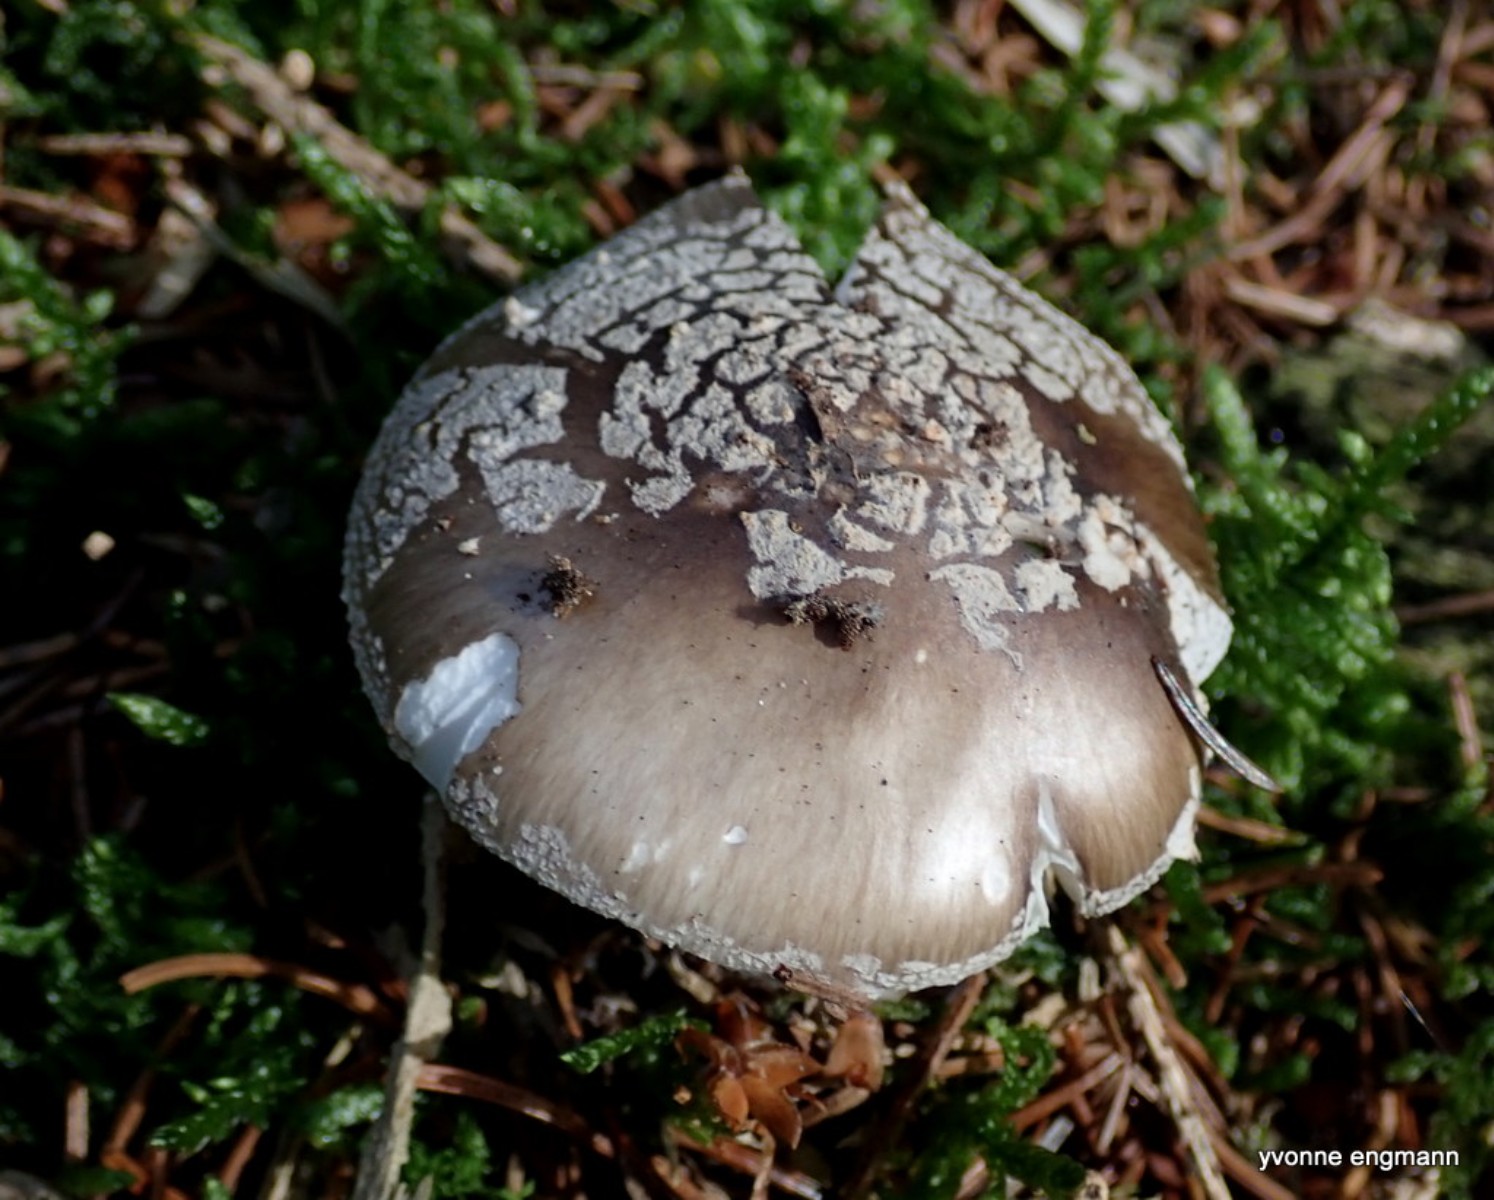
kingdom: Fungi
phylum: Basidiomycota
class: Agaricomycetes
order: Agaricales
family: Amanitaceae
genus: Amanita
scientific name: Amanita
